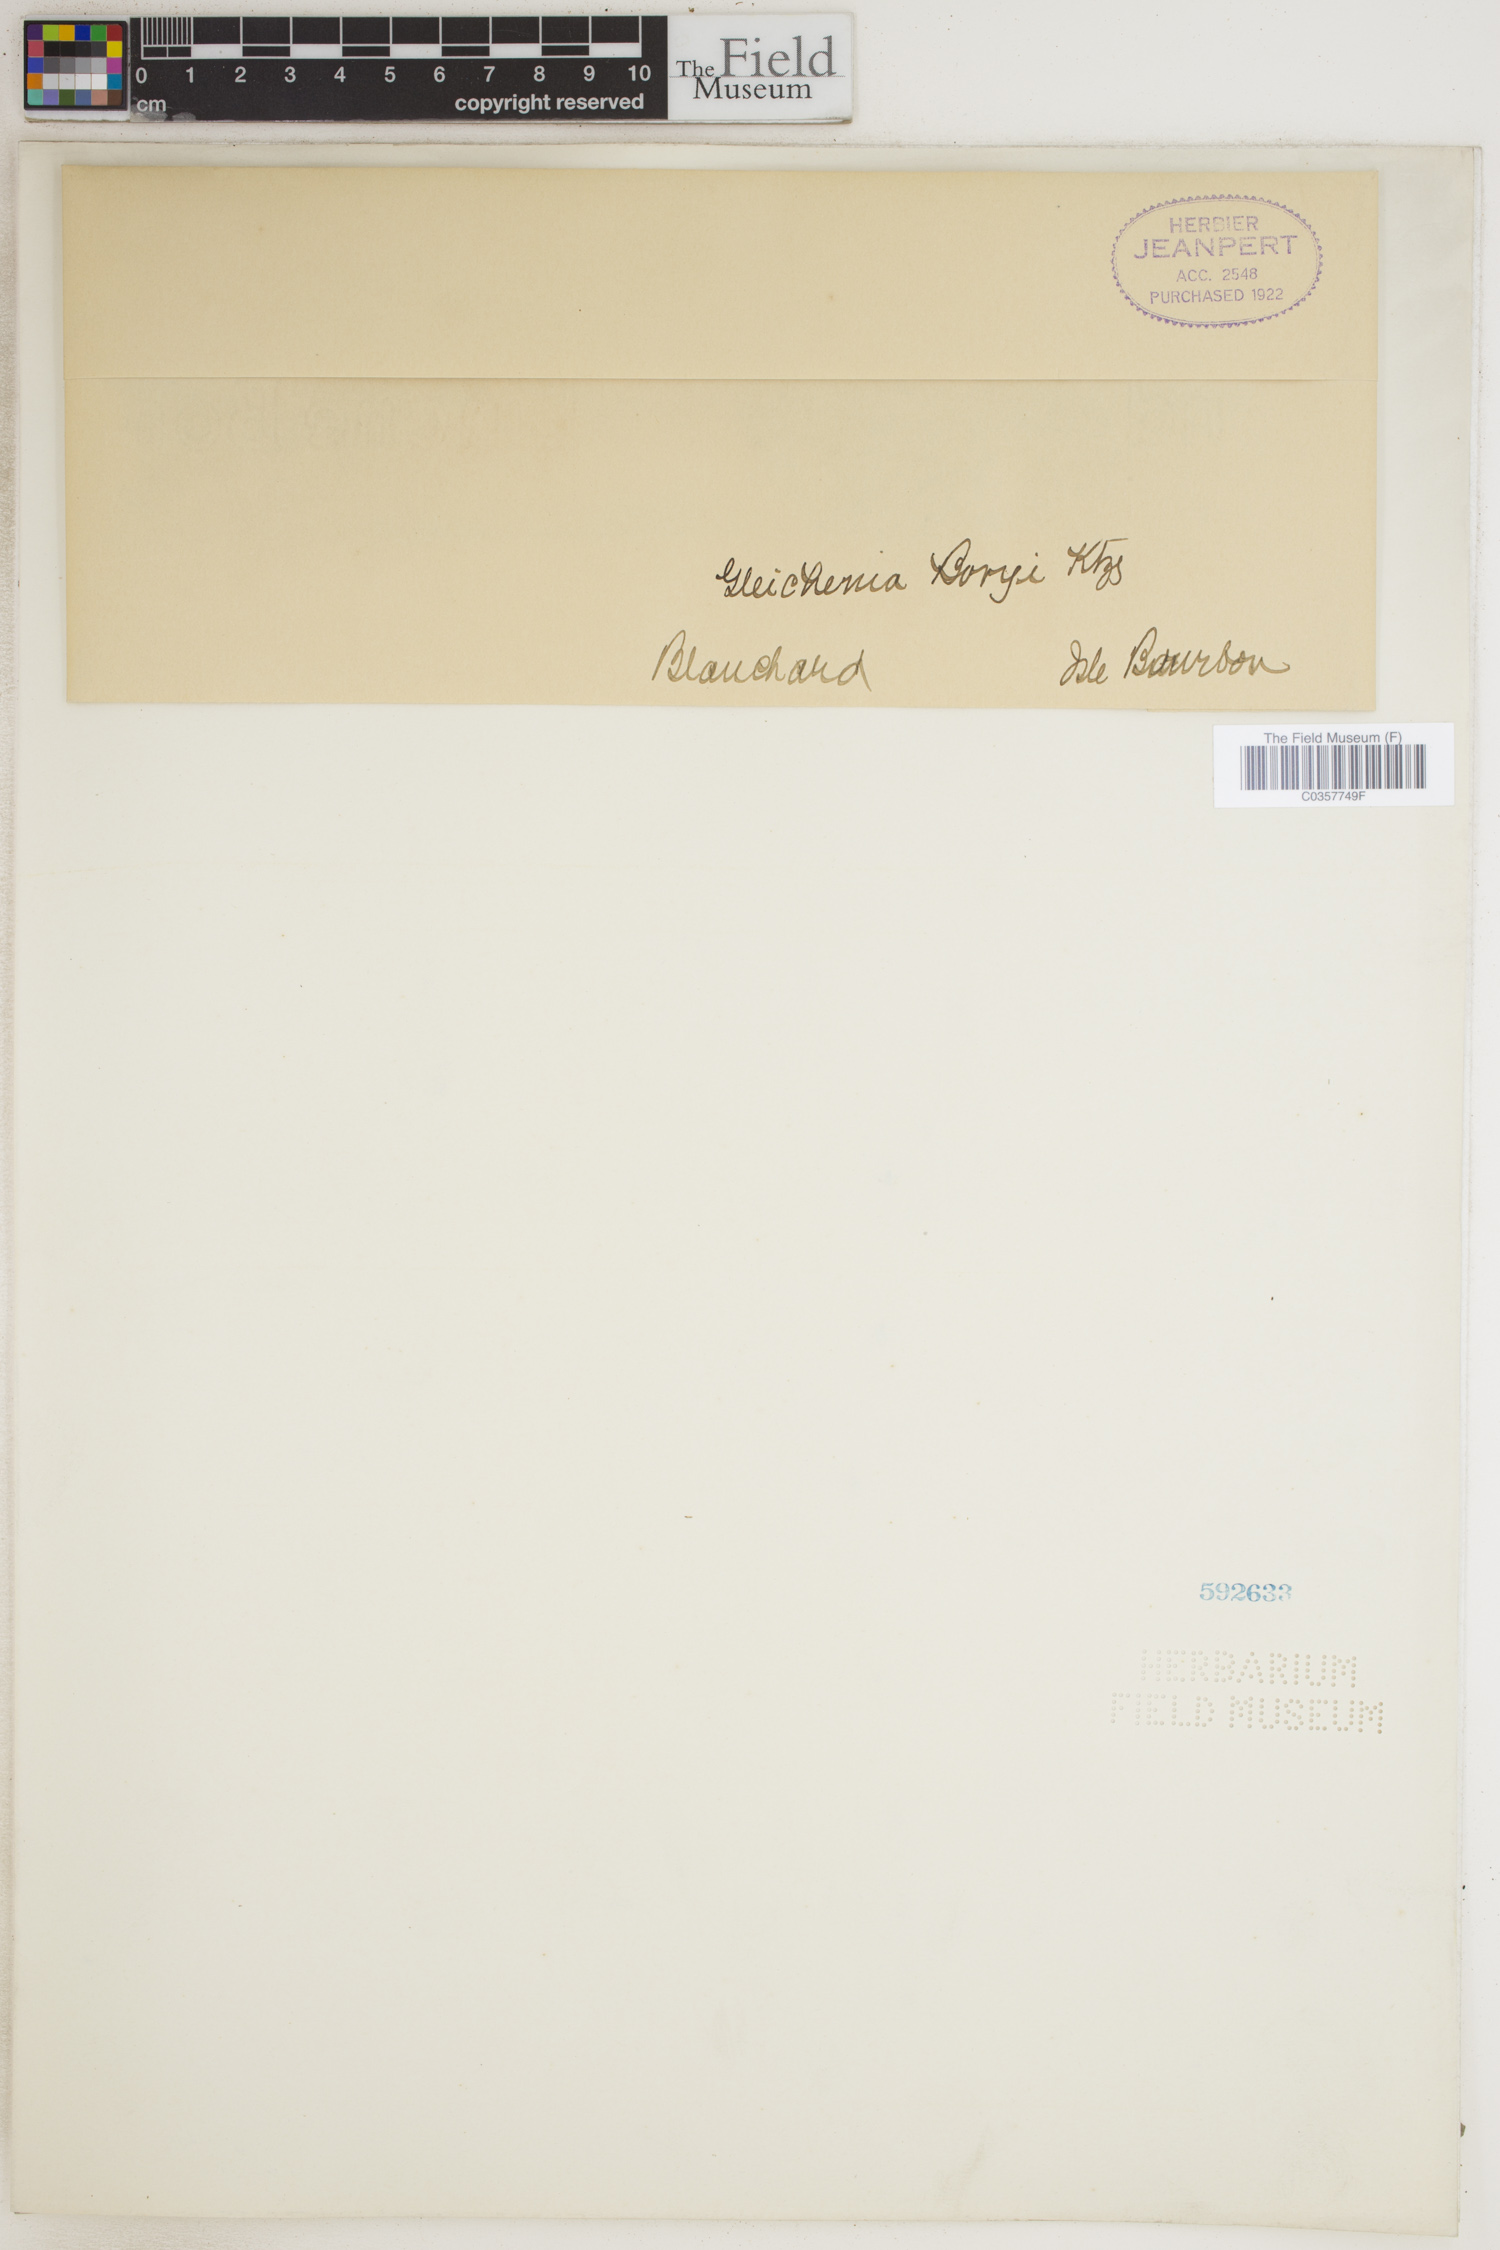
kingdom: Plantae
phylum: Tracheophyta
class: Polypodiopsida
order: Gleicheniales
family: Gleicheniaceae
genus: Rouxopteris
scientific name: Rouxopteris boryi
